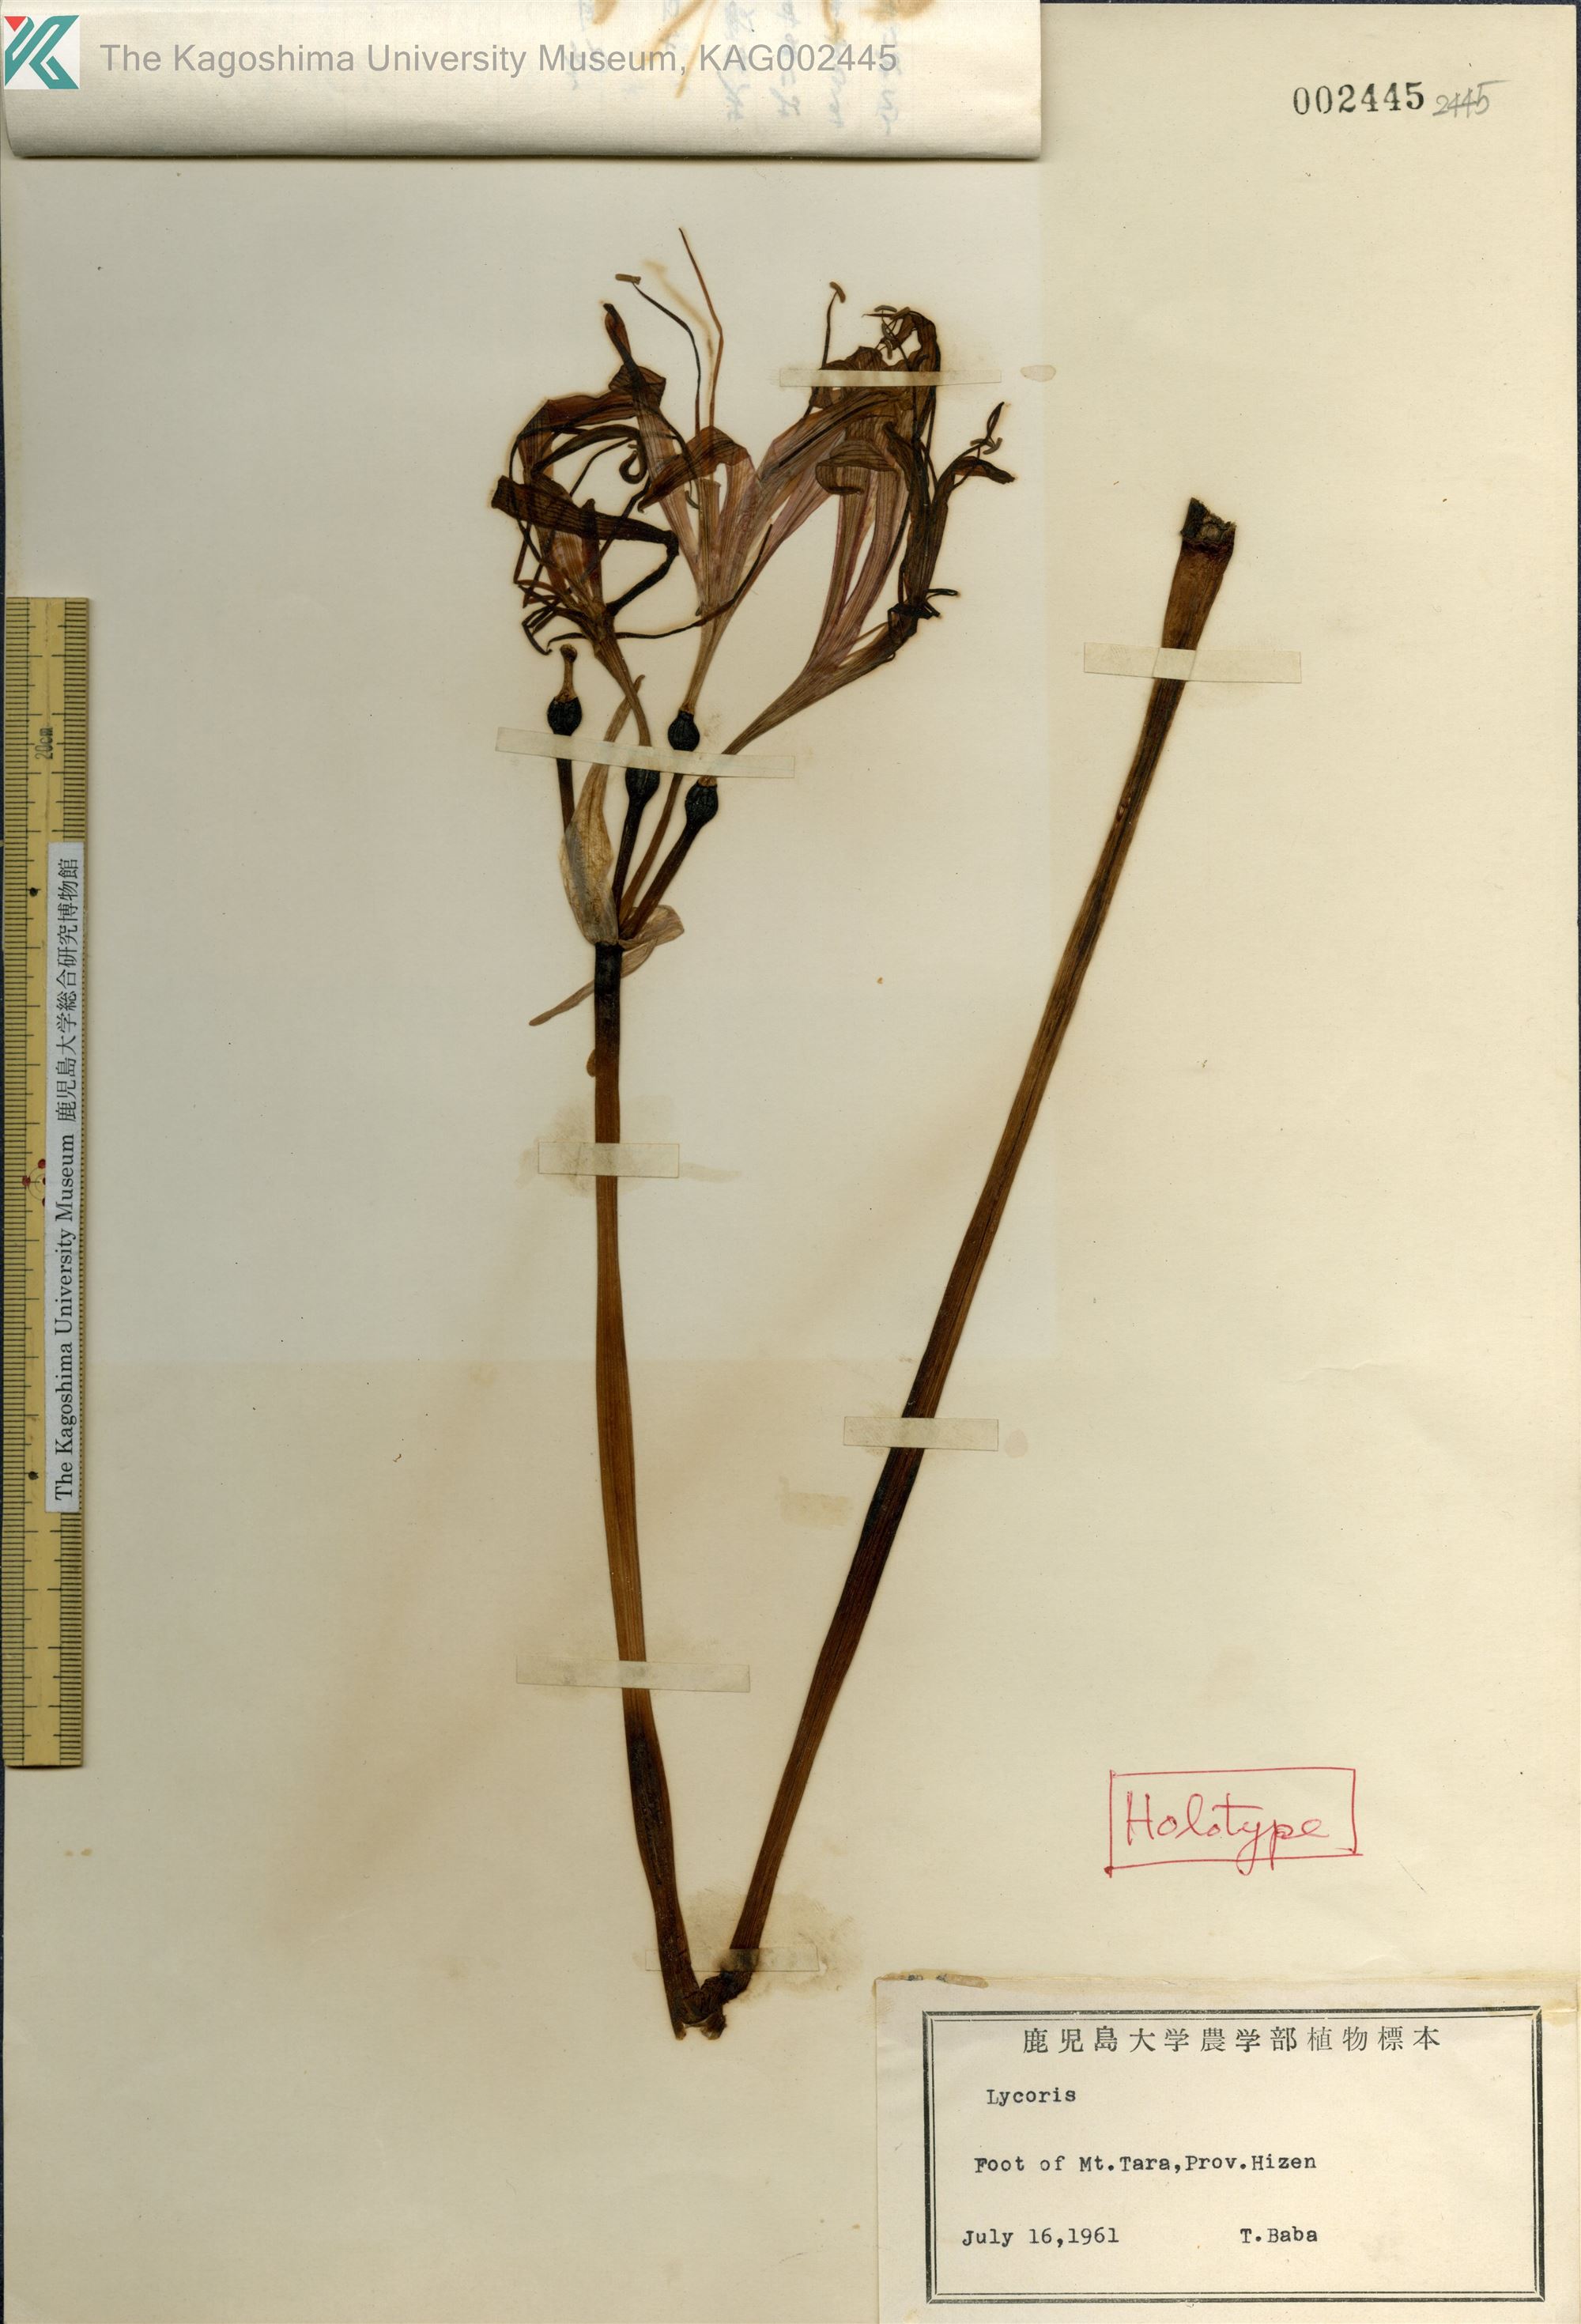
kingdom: Plantae
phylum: Tracheophyta
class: Liliopsida
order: Asparagales
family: Amaryllidaceae
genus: Lycoris
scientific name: Lycoris
